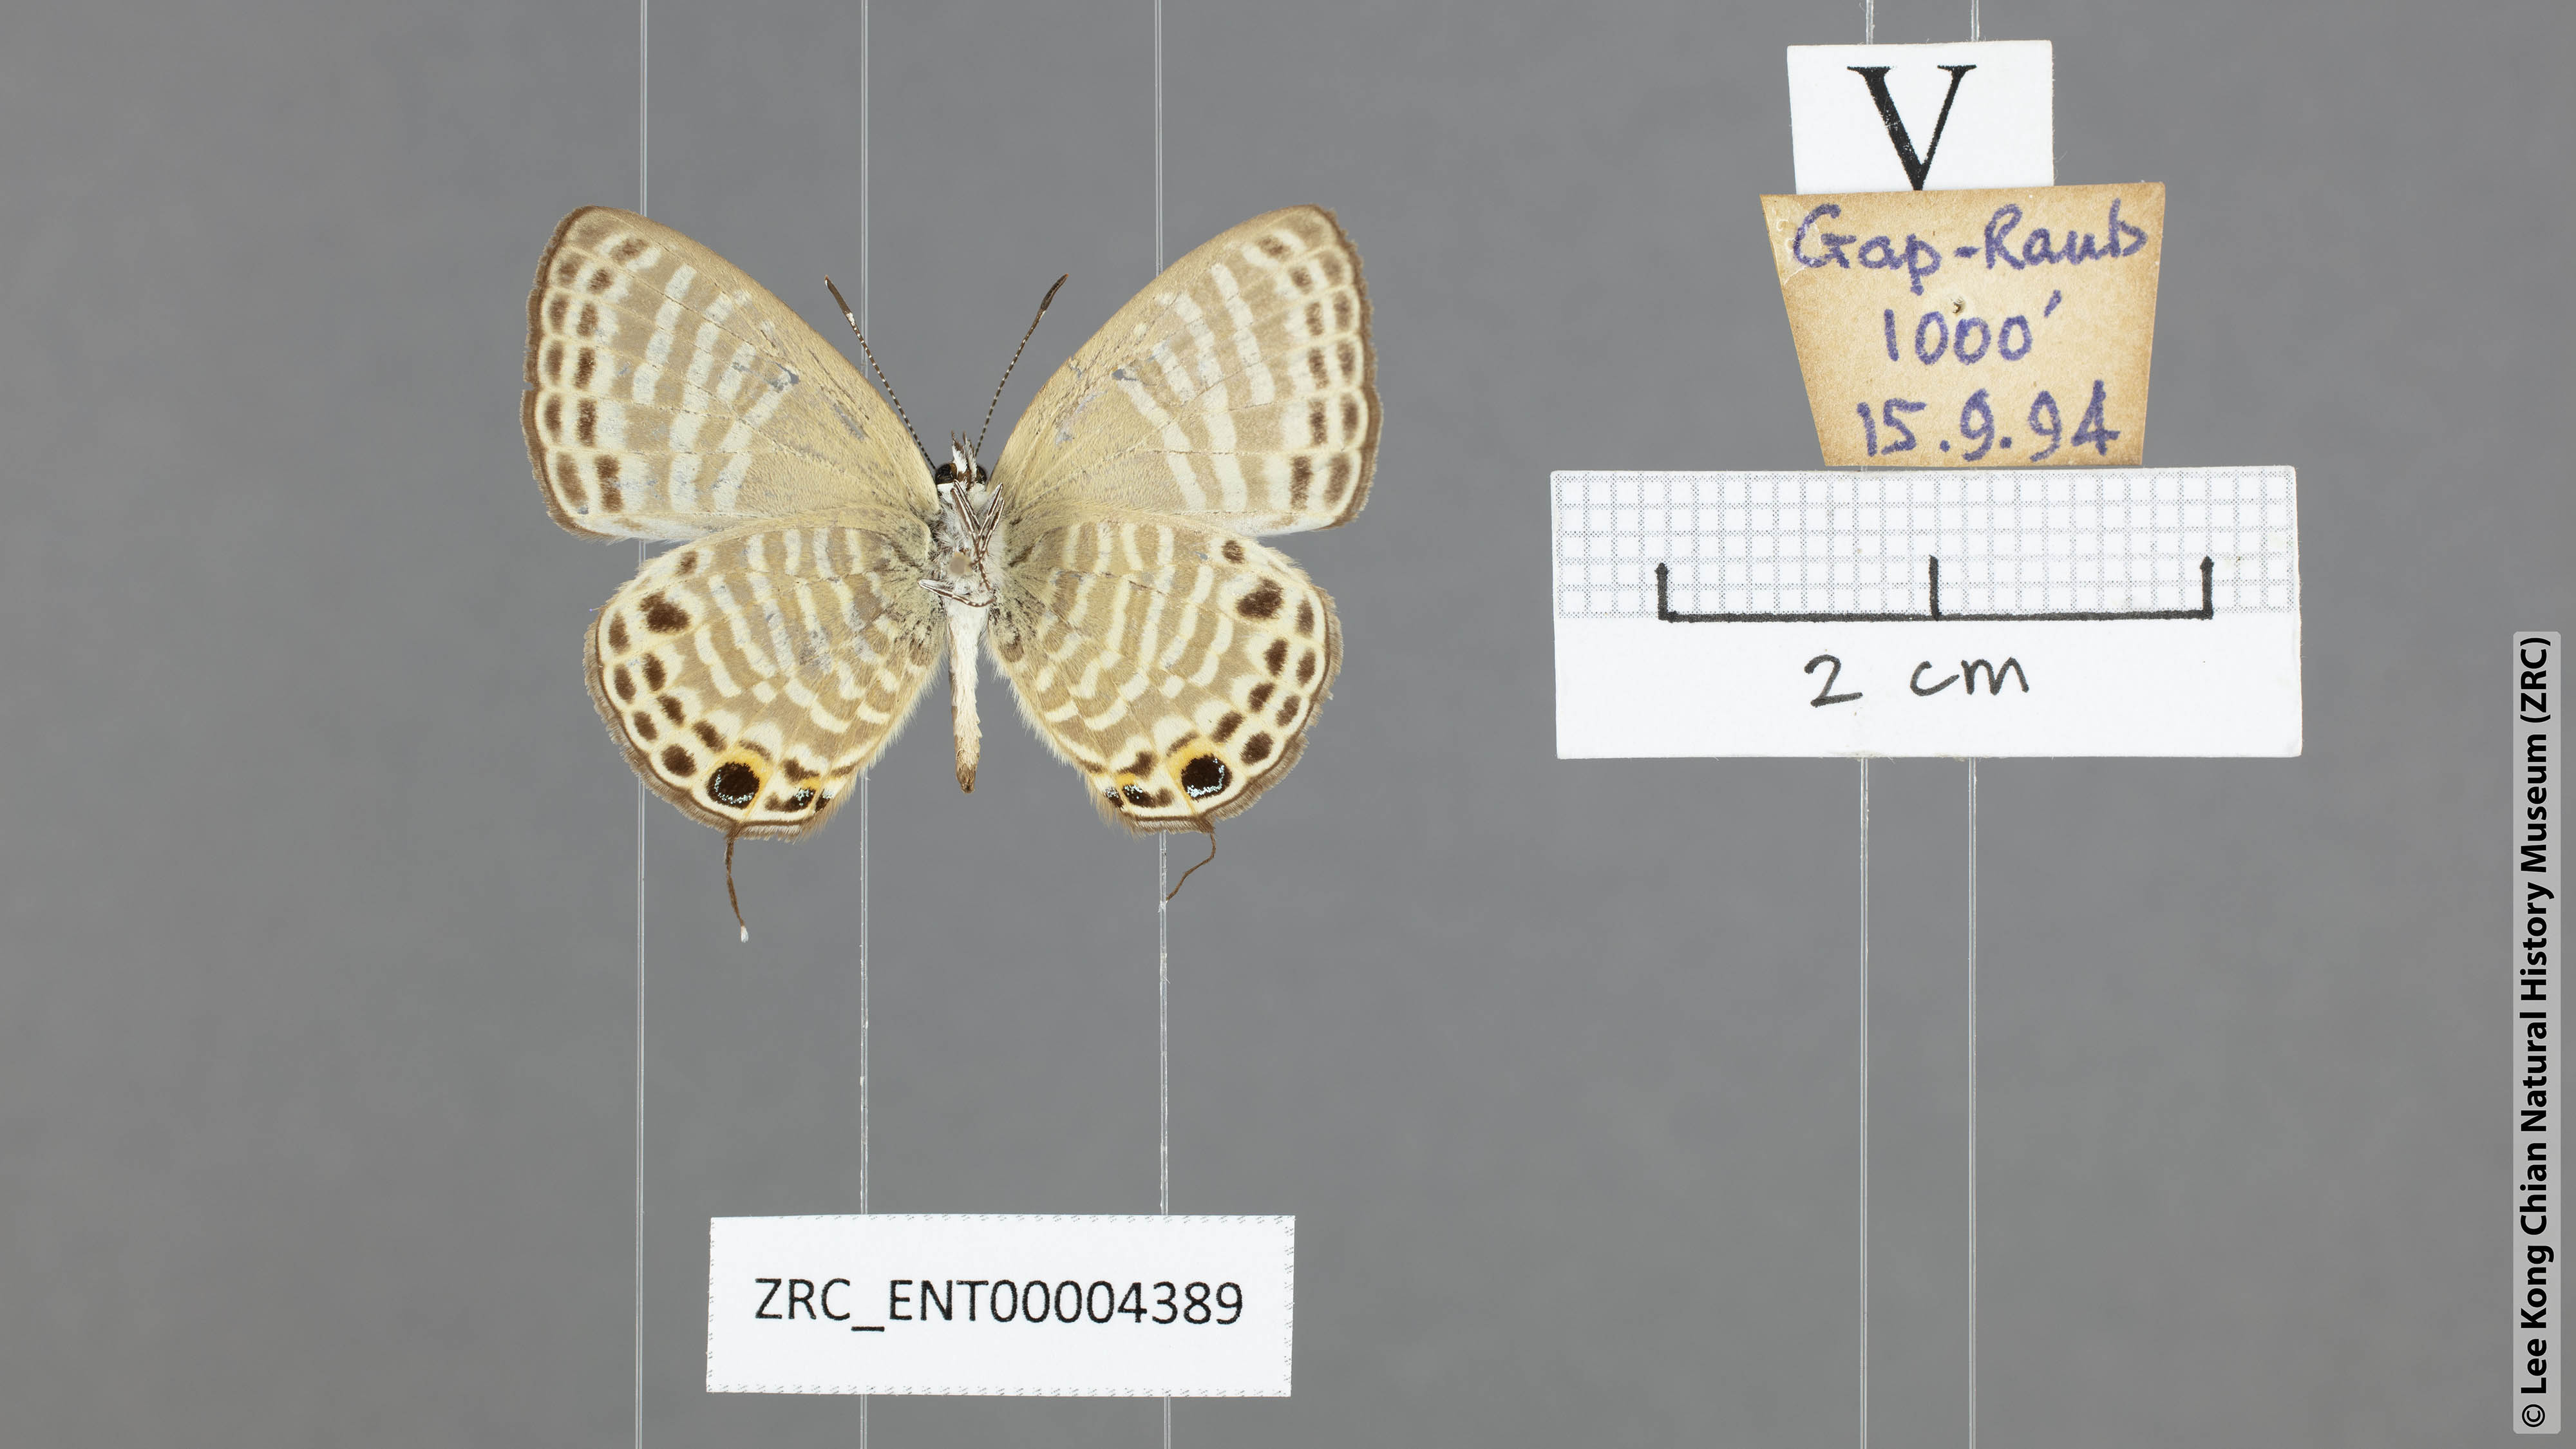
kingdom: Animalia
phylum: Arthropoda
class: Insecta
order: Lepidoptera
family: Lycaenidae
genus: Nacaduba
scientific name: Nacaduba angusta
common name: White four-line blue
